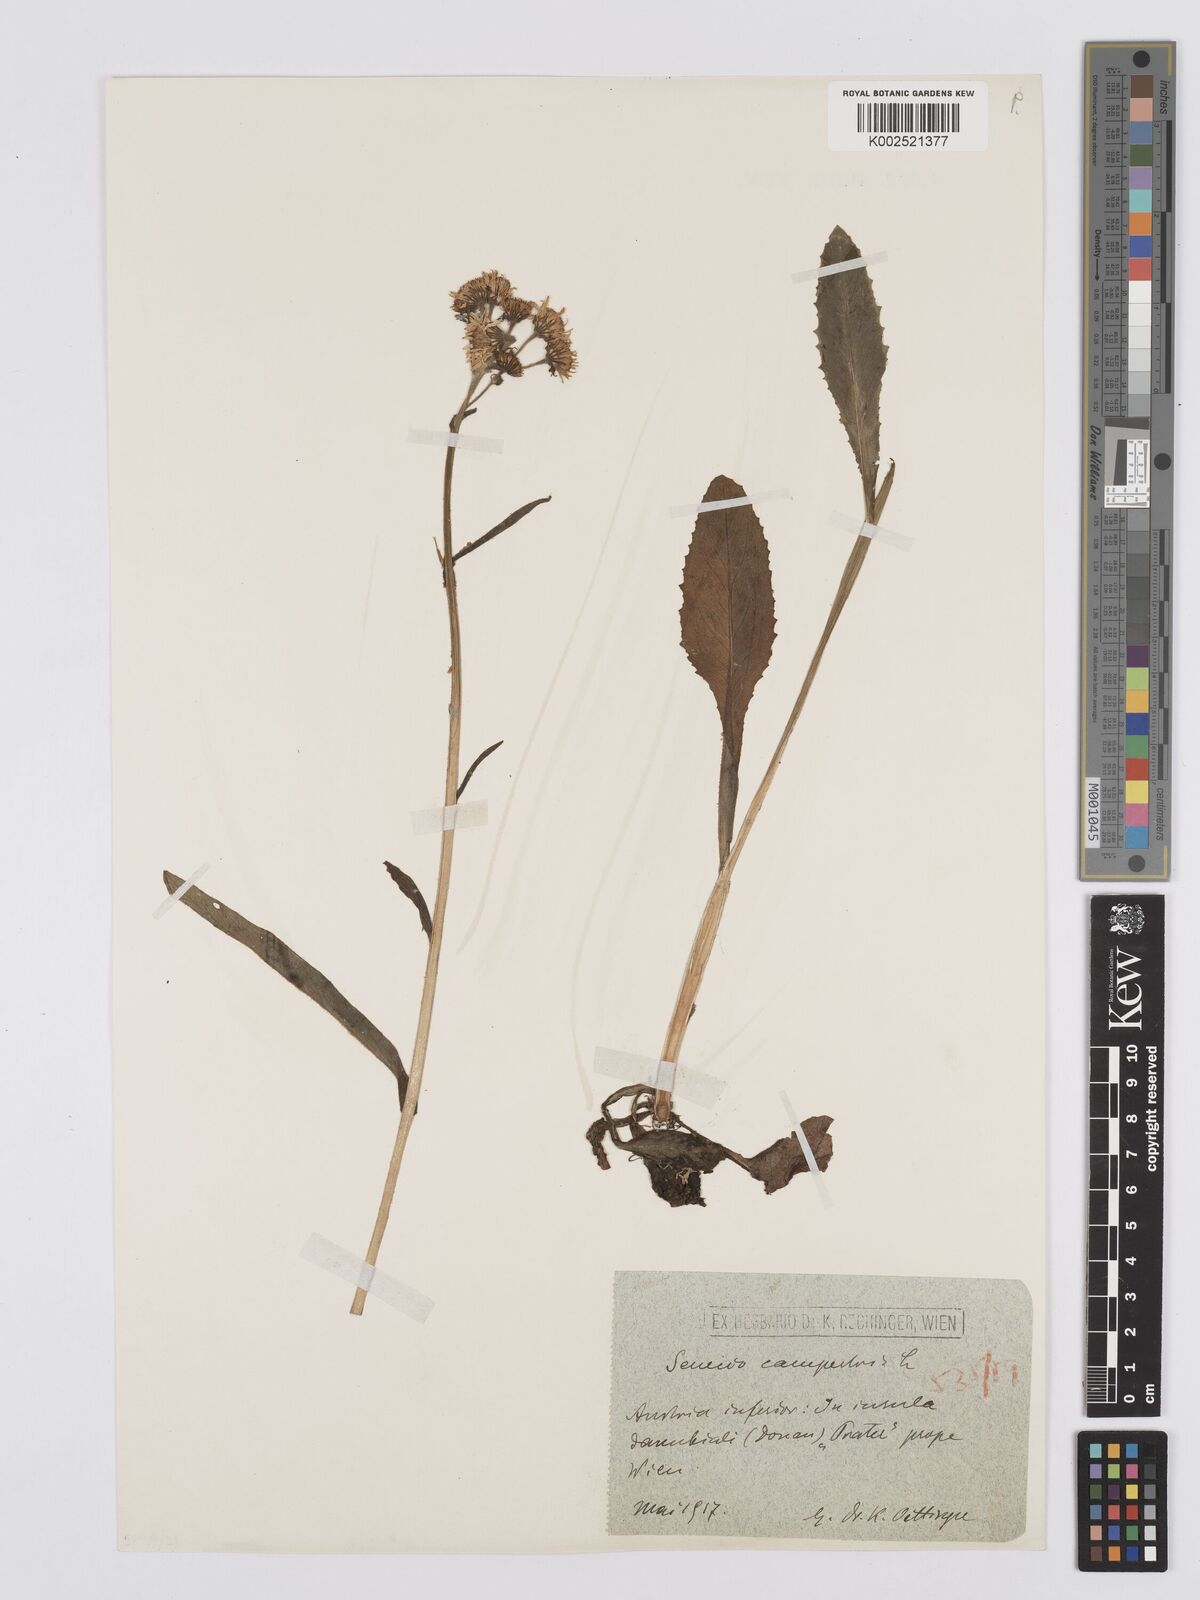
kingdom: Plantae
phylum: Tracheophyta
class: Magnoliopsida
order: Asterales
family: Asteraceae
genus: Tephroseris
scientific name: Tephroseris helenitis
